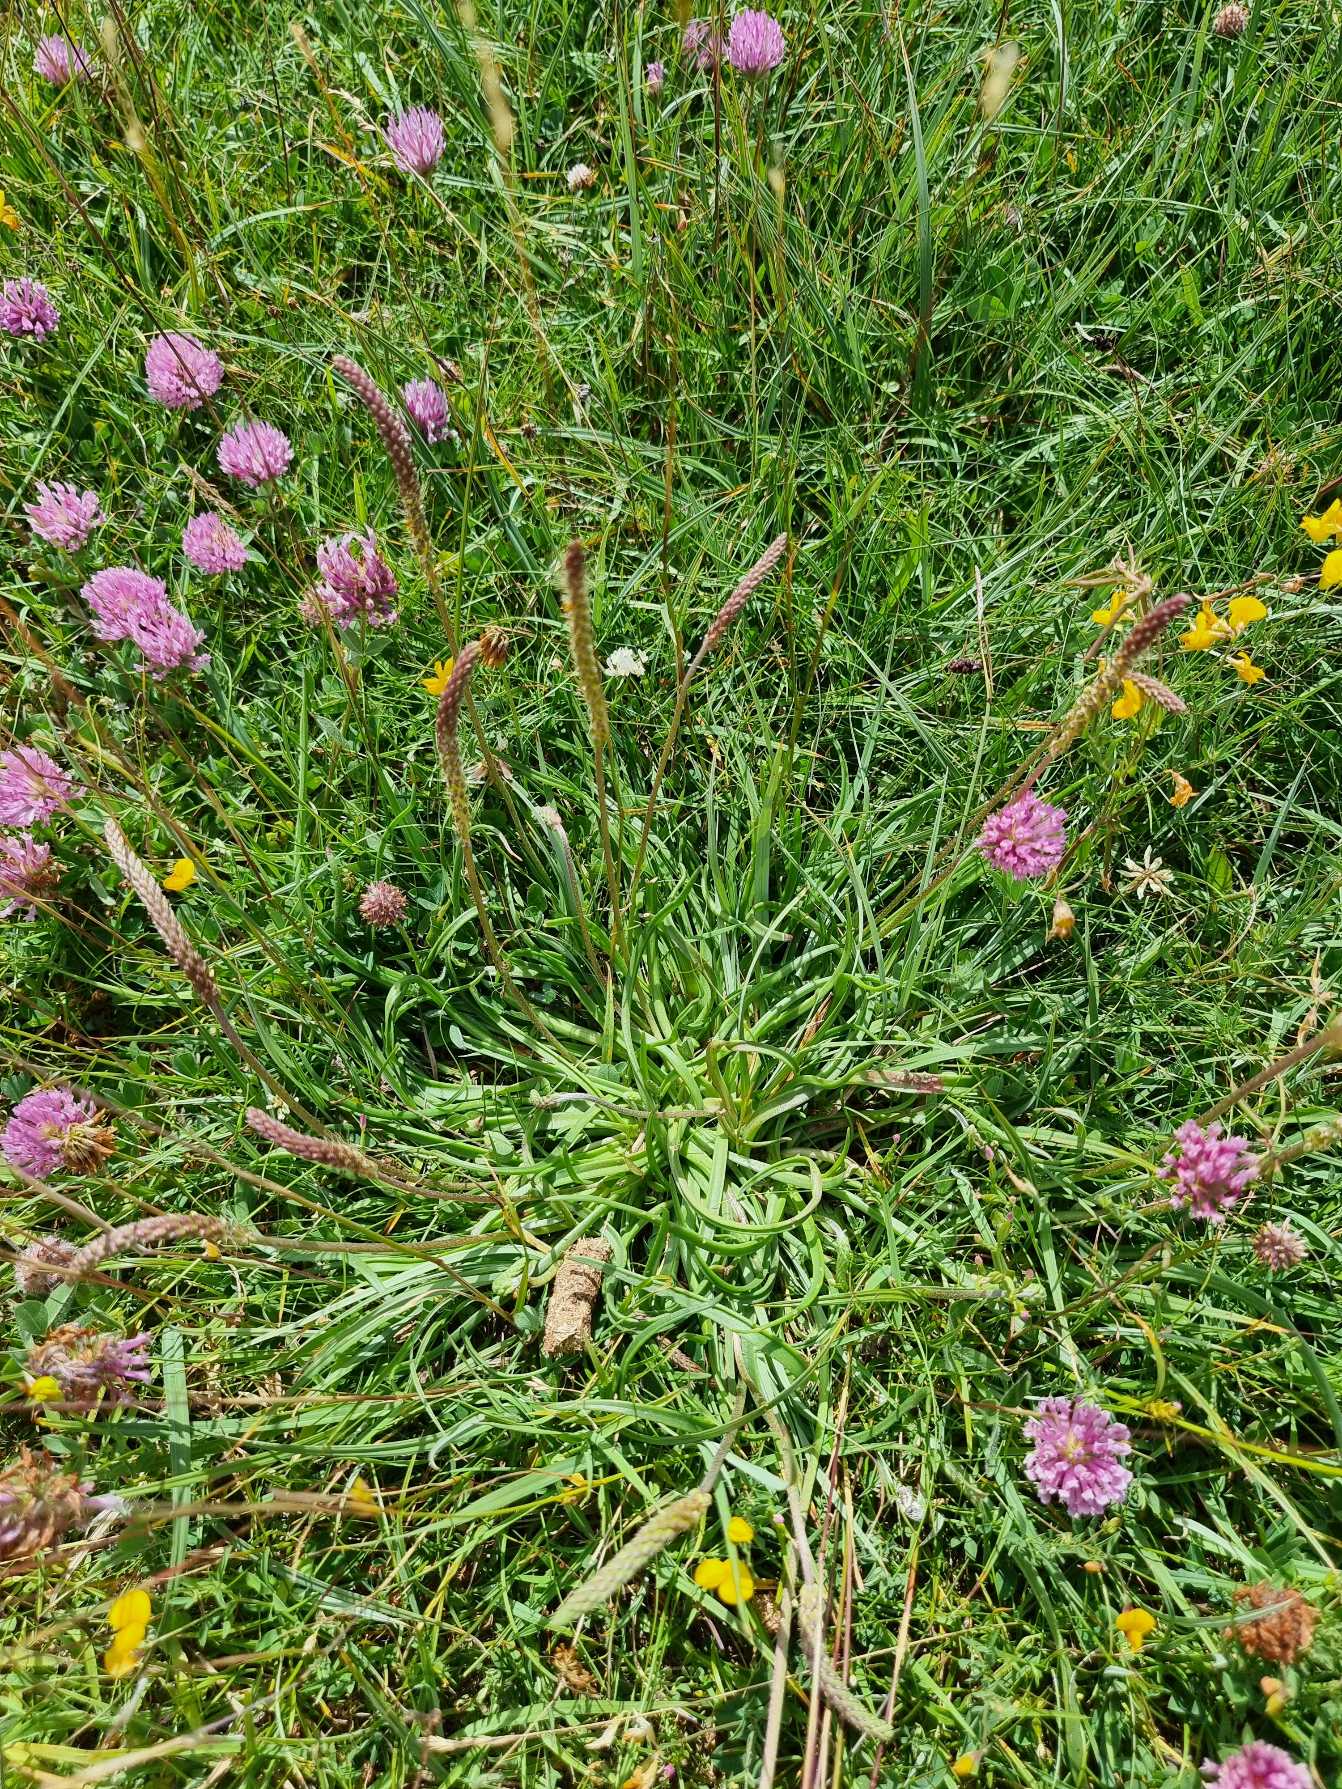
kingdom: Plantae
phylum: Tracheophyta
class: Magnoliopsida
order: Lamiales
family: Plantaginaceae
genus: Plantago
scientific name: Plantago maritima
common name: Strand-vejbred
